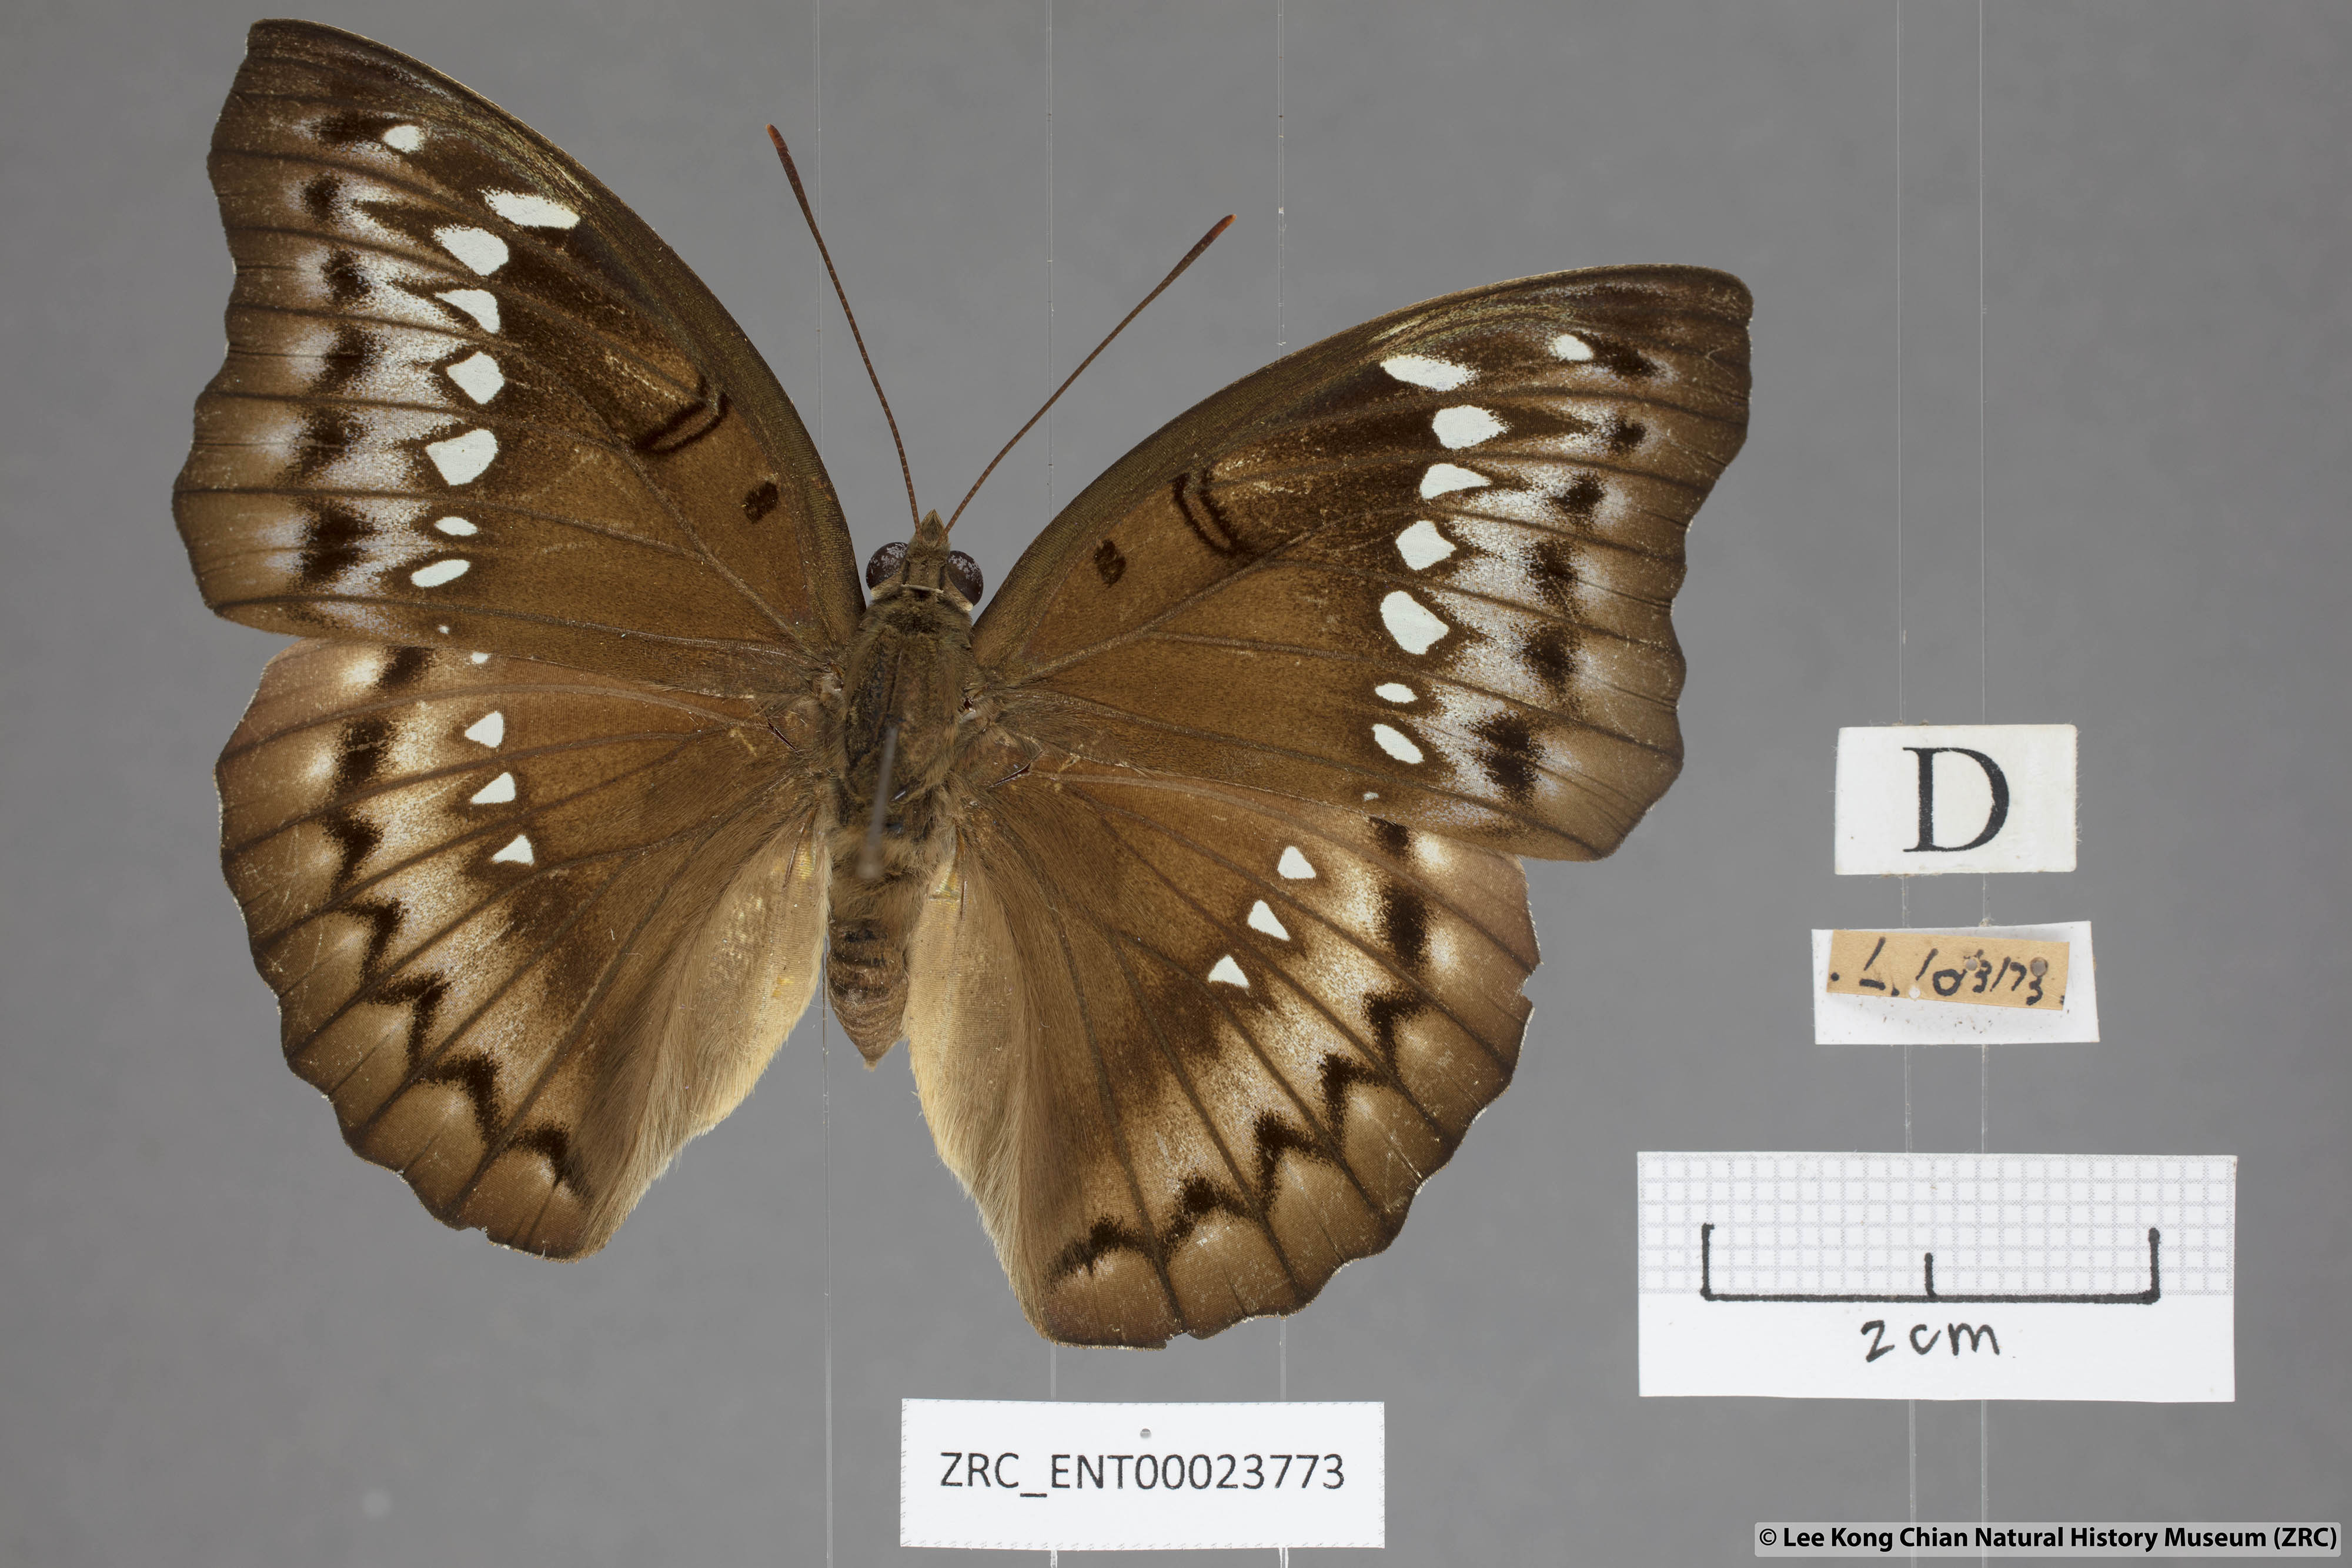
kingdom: Animalia
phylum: Arthropoda
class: Insecta
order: Lepidoptera
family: Nymphalidae
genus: Euthalia
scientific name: Euthalia Bassarona teuta
